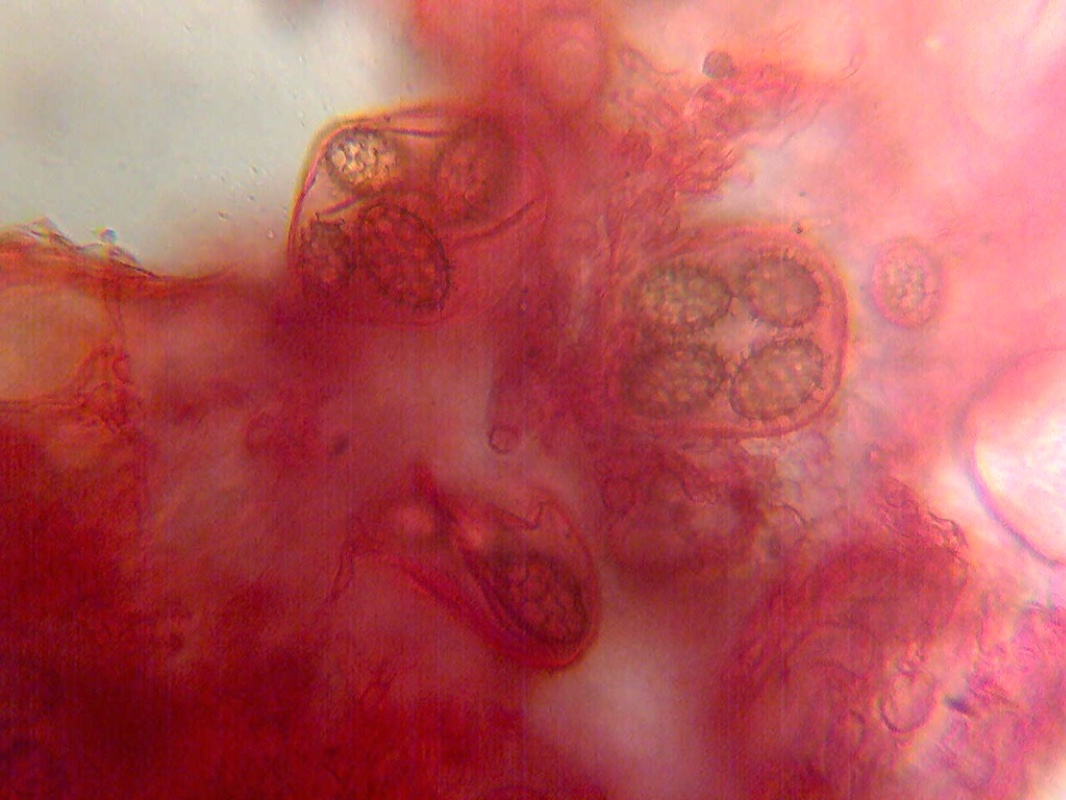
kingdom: Fungi
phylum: Ascomycota
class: Pezizomycetes
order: Pezizales
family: Tuberaceae
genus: Tuber
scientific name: Tuber borchii
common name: Borchs trøffel
